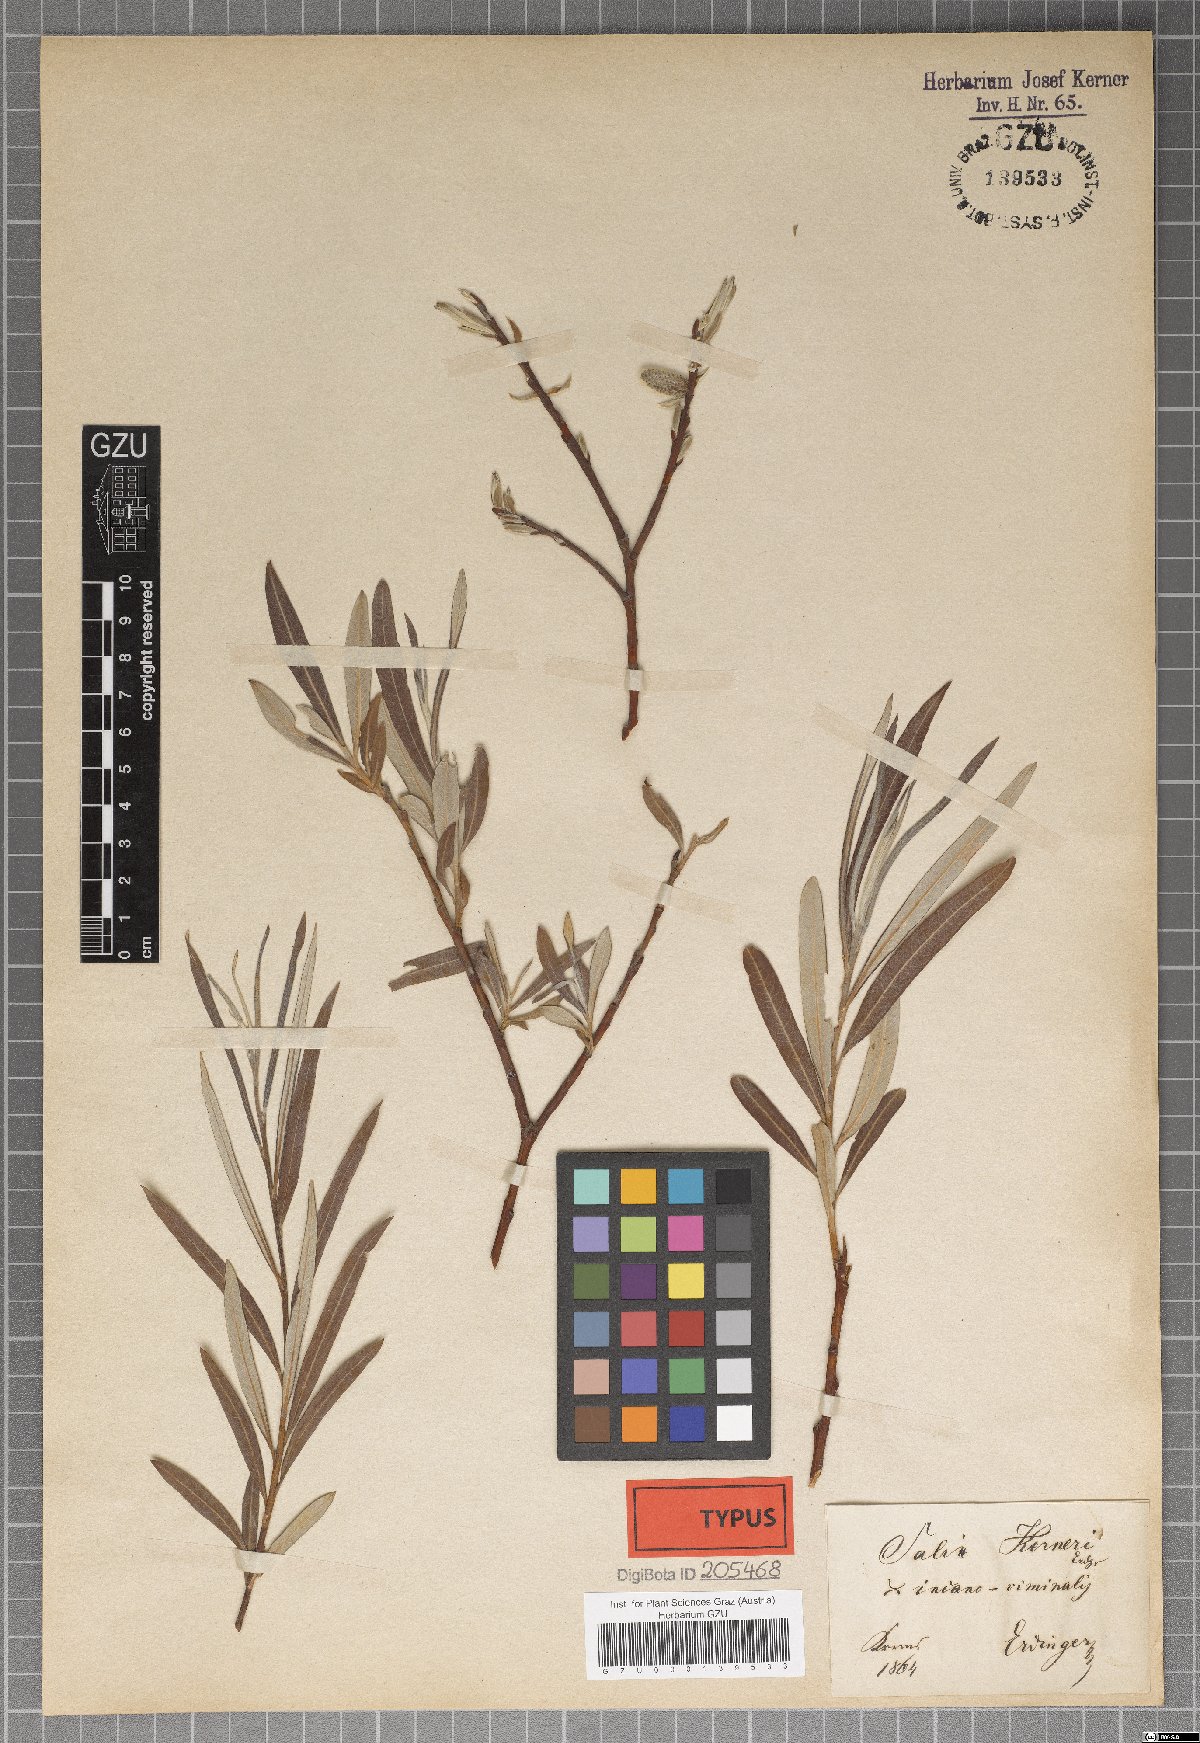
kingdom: Plantae
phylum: Tracheophyta
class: Magnoliopsida
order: Malpighiales
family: Salicaceae
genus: Salix
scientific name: Salix kerneri
